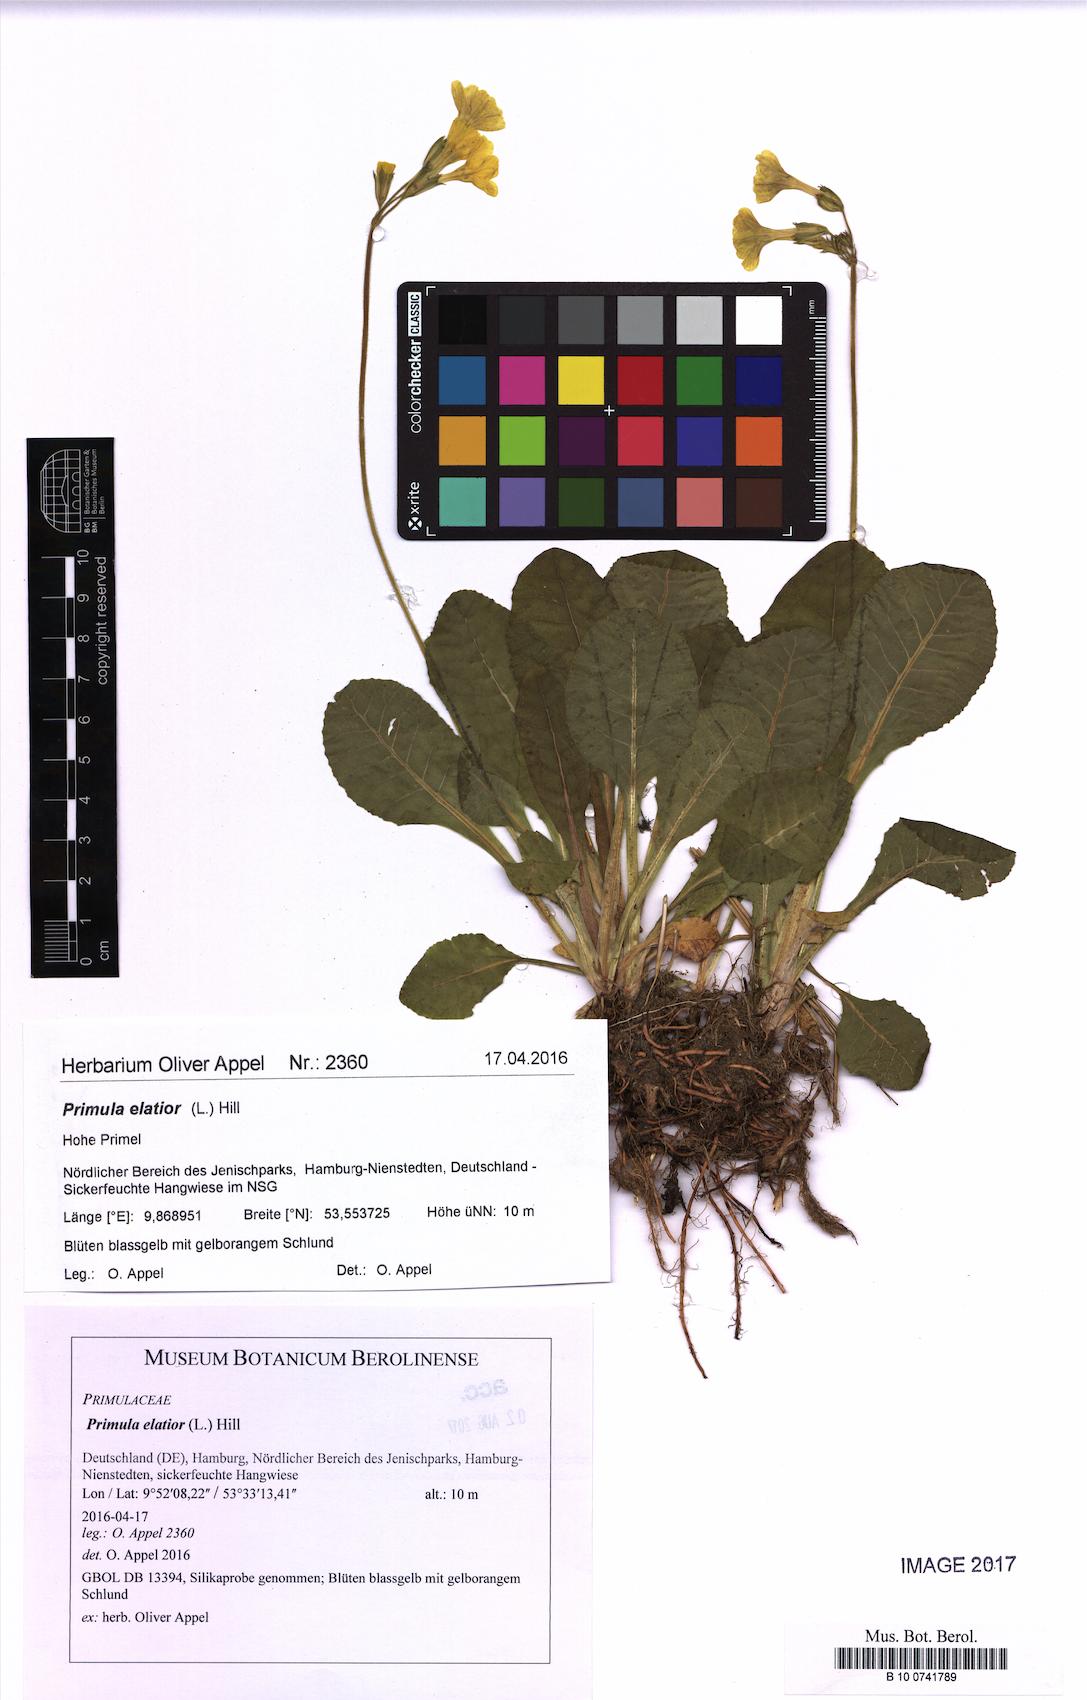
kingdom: Plantae
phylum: Tracheophyta
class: Magnoliopsida
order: Ericales
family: Primulaceae
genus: Primula
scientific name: Primula elatior
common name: Oxlip
